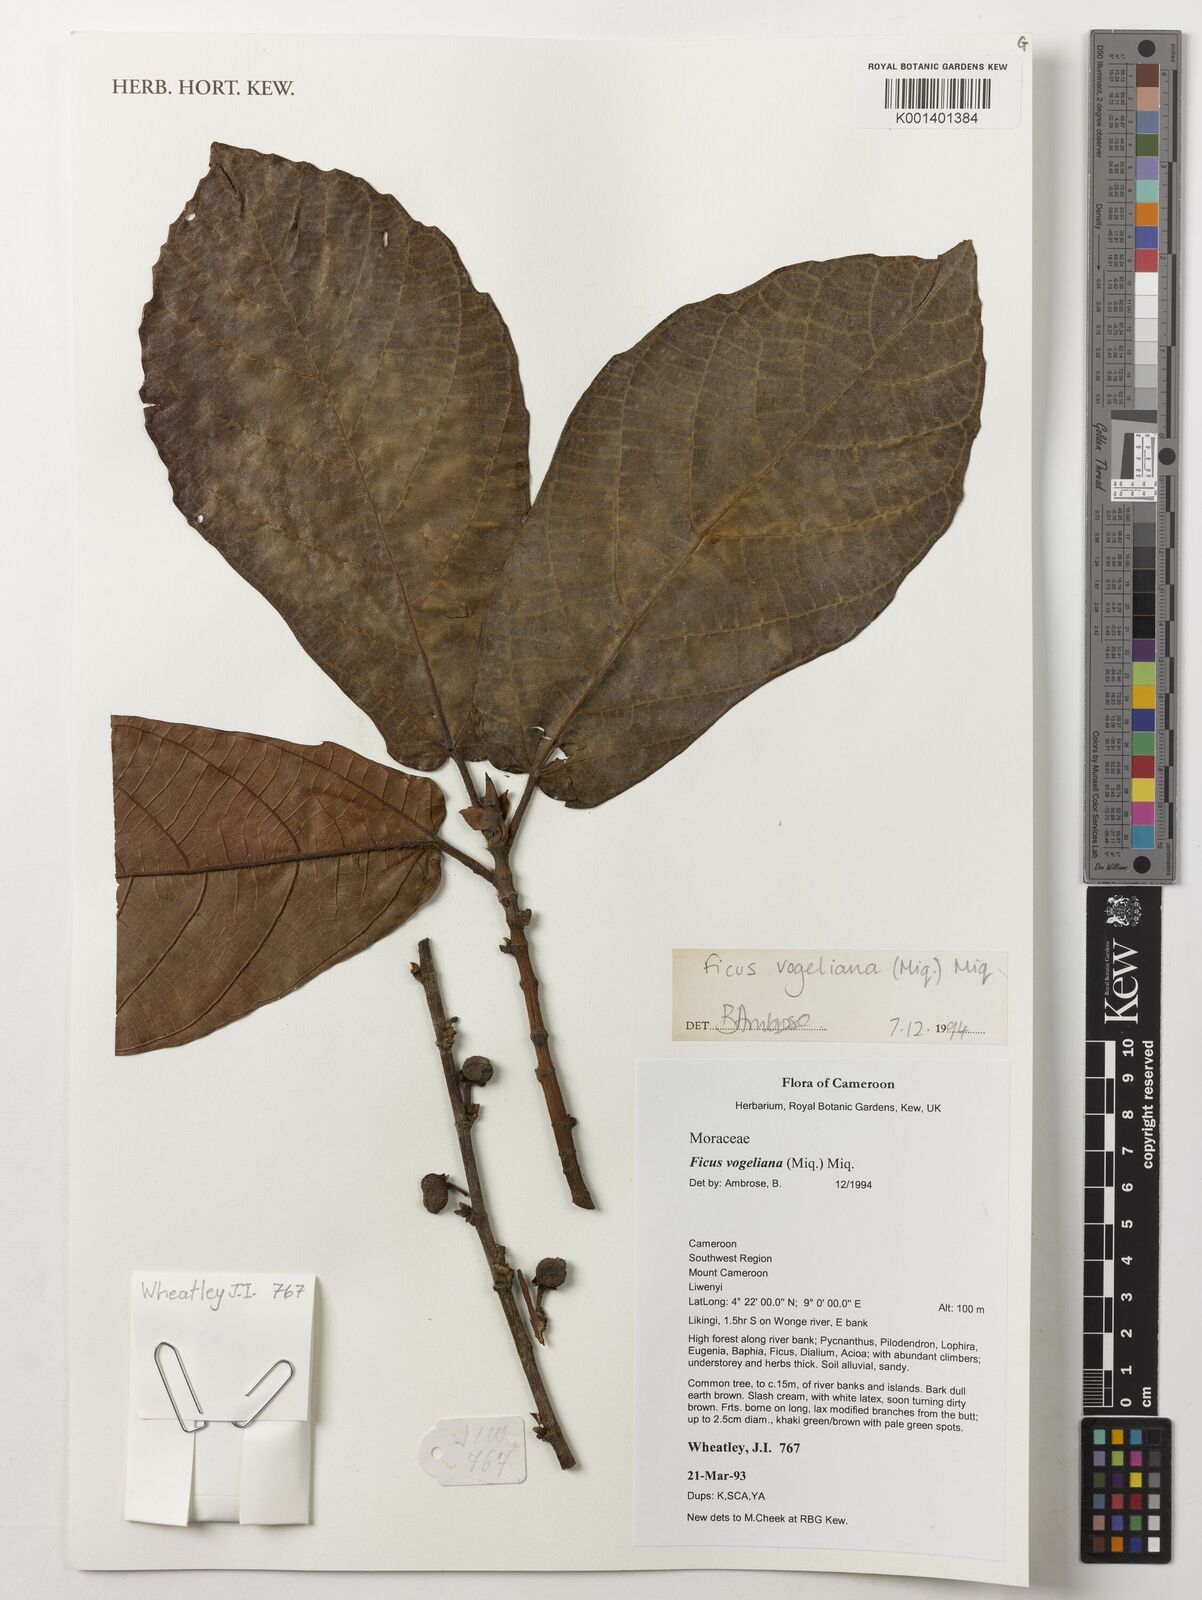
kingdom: Plantae
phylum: Tracheophyta
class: Magnoliopsida
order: Rosales
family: Moraceae
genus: Ficus
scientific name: Ficus vogeliana
